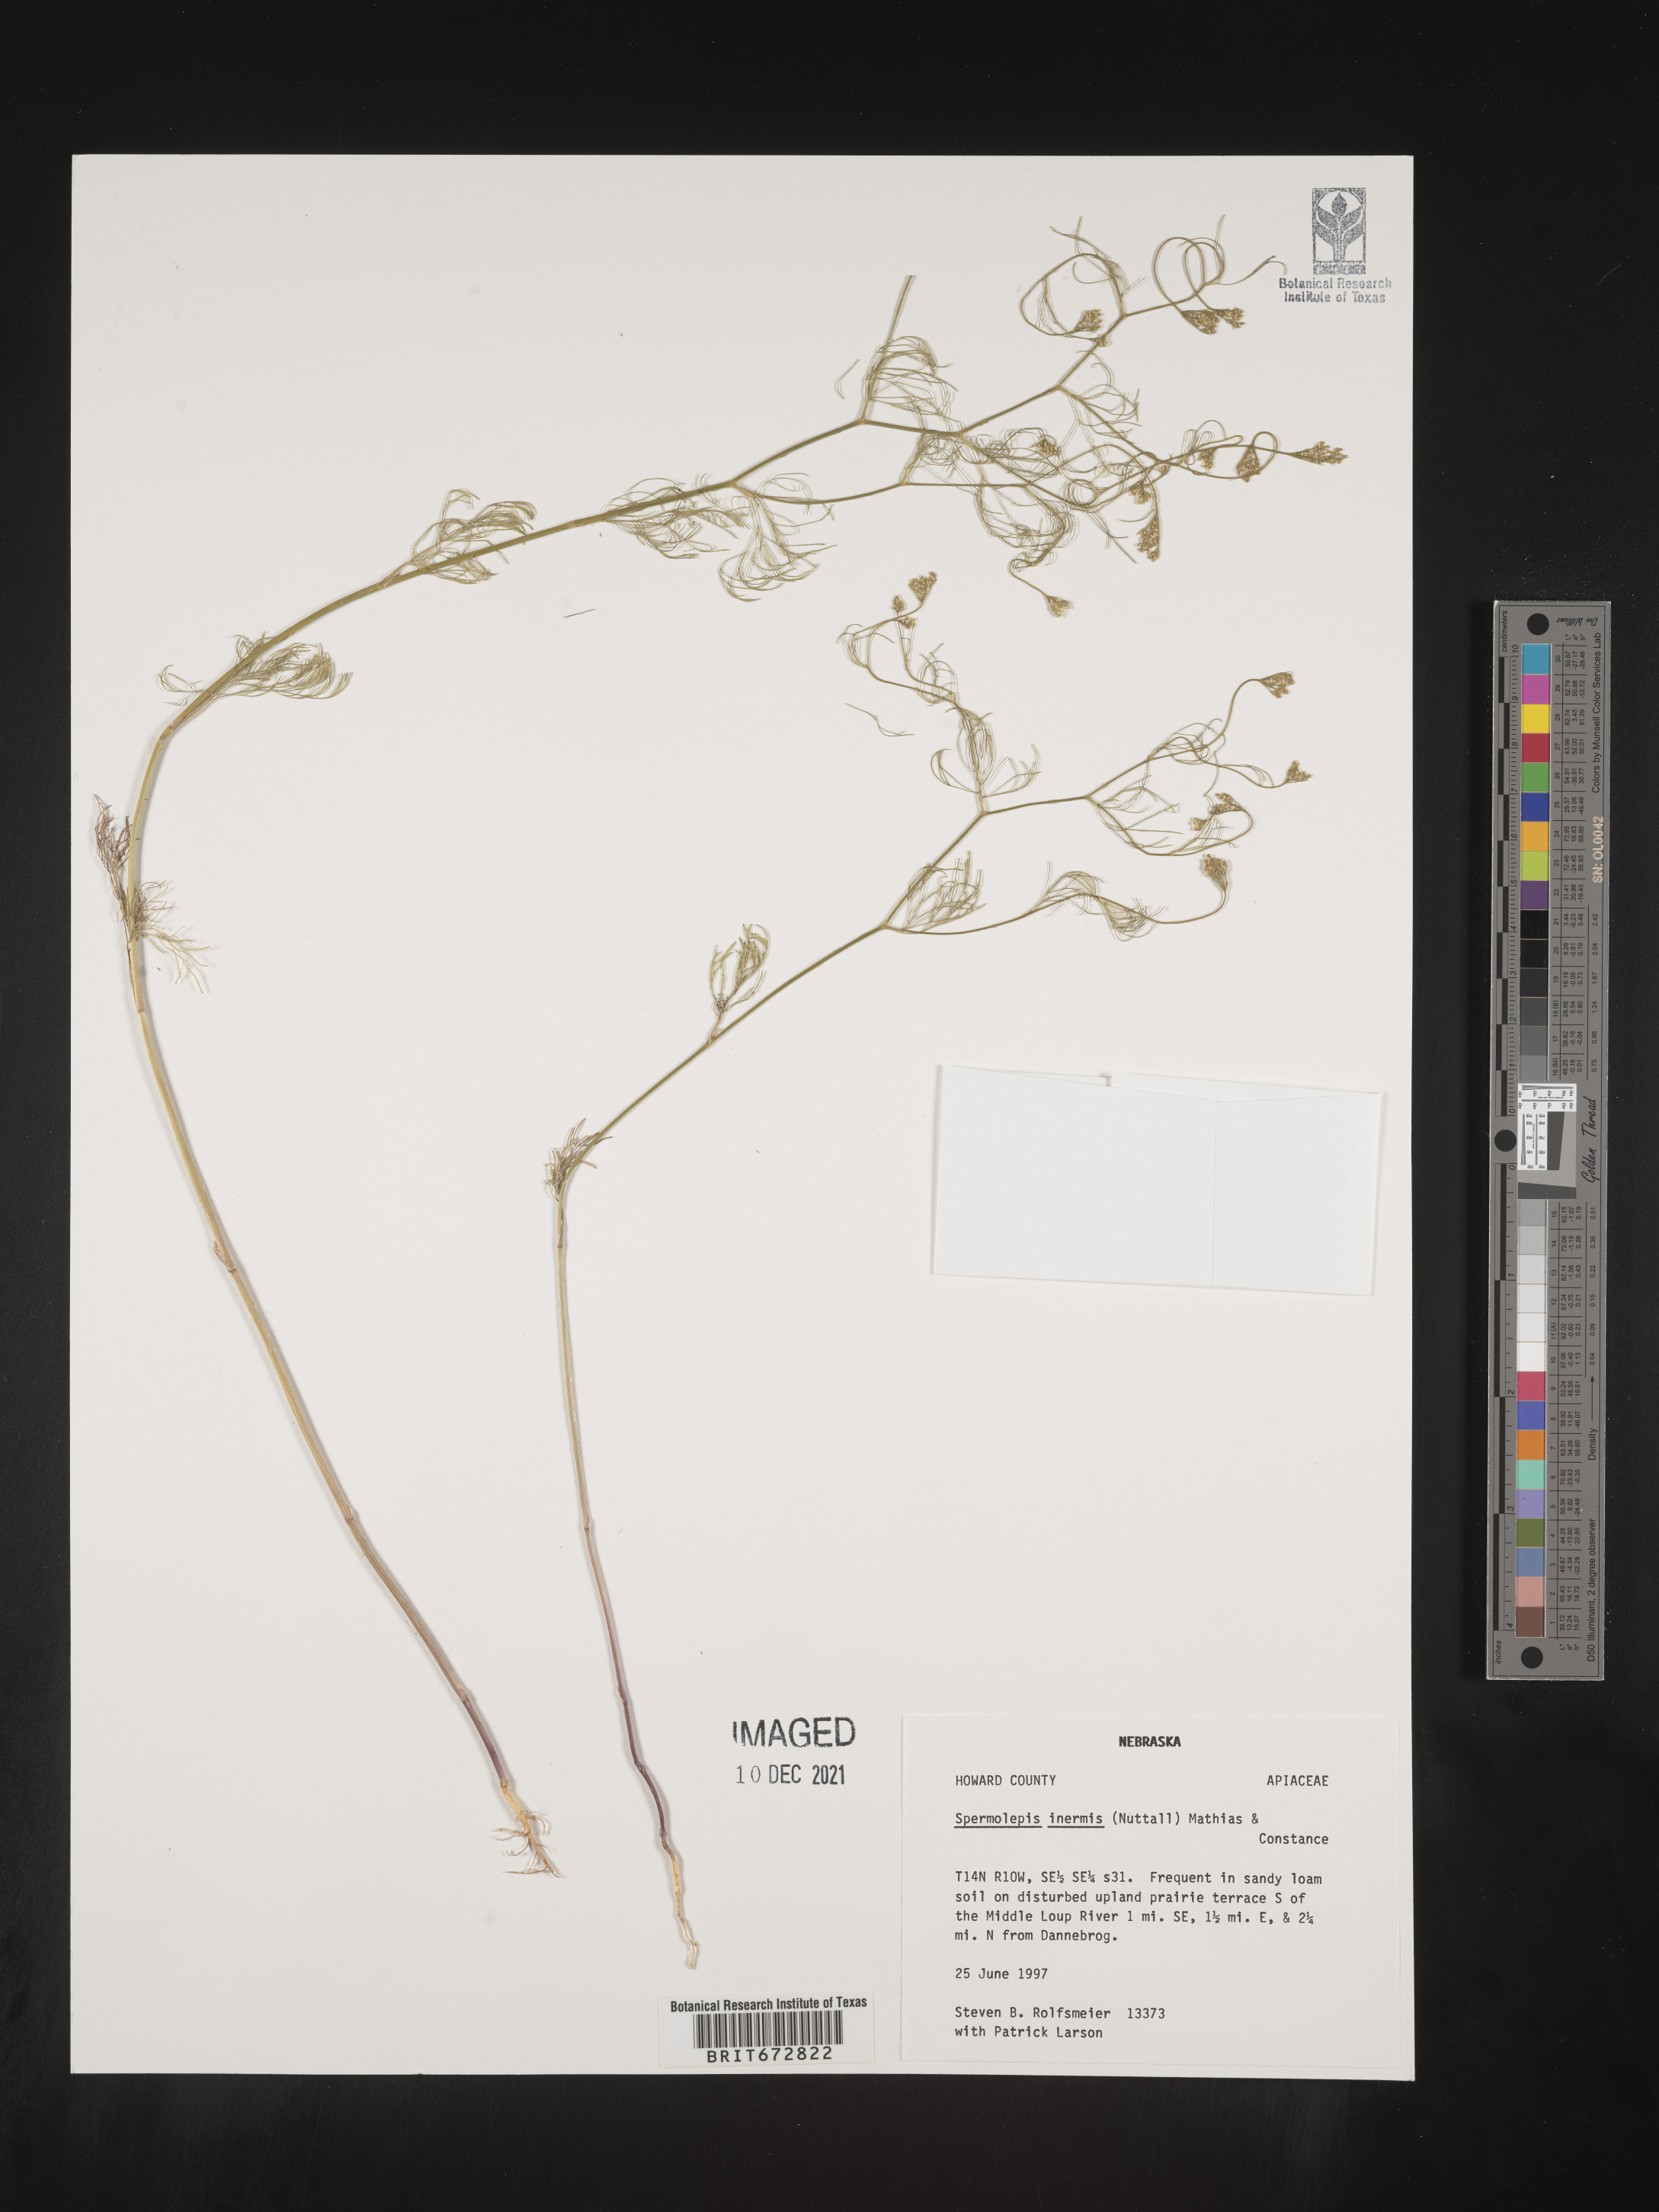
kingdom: Plantae
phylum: Tracheophyta
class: Magnoliopsida
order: Apiales
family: Apiaceae
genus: Spermolepis
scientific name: Spermolepis inermis
